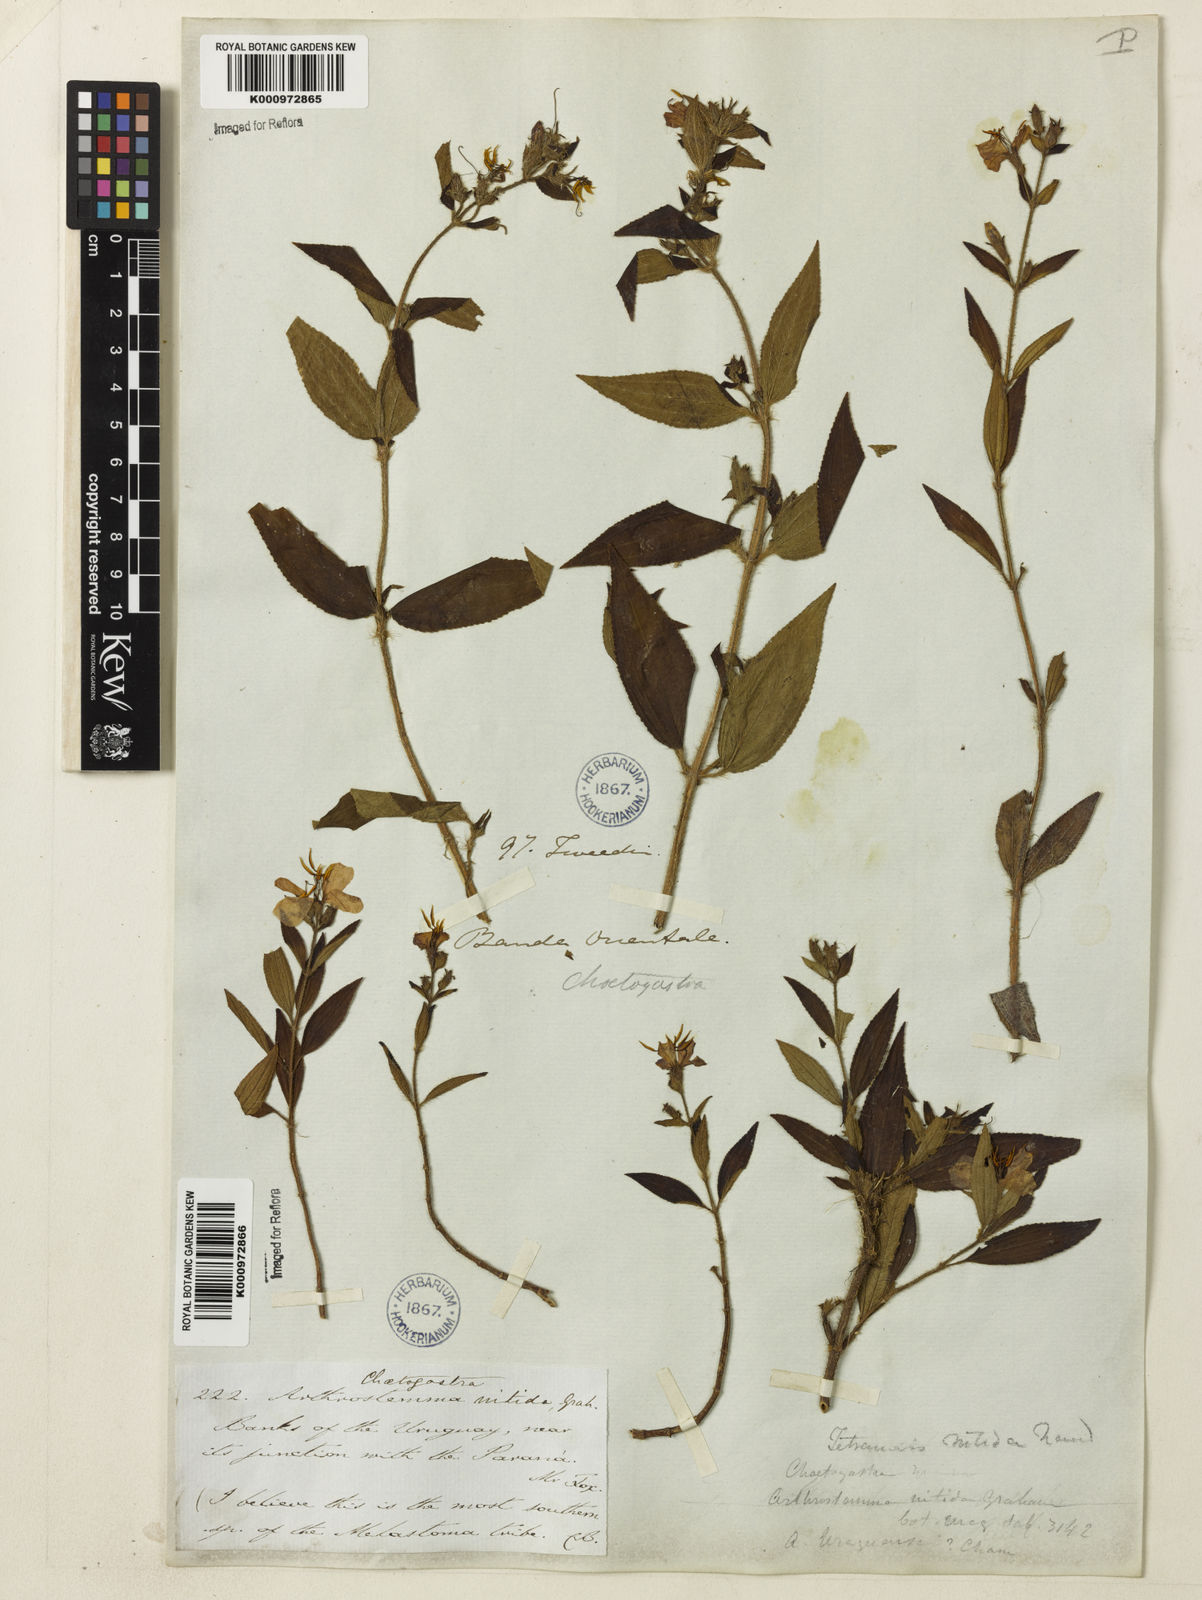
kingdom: Plantae
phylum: Tracheophyta
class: Magnoliopsida
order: Myrtales
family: Melastomataceae
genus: Chaetogastra
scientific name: Chaetogastra nitida
